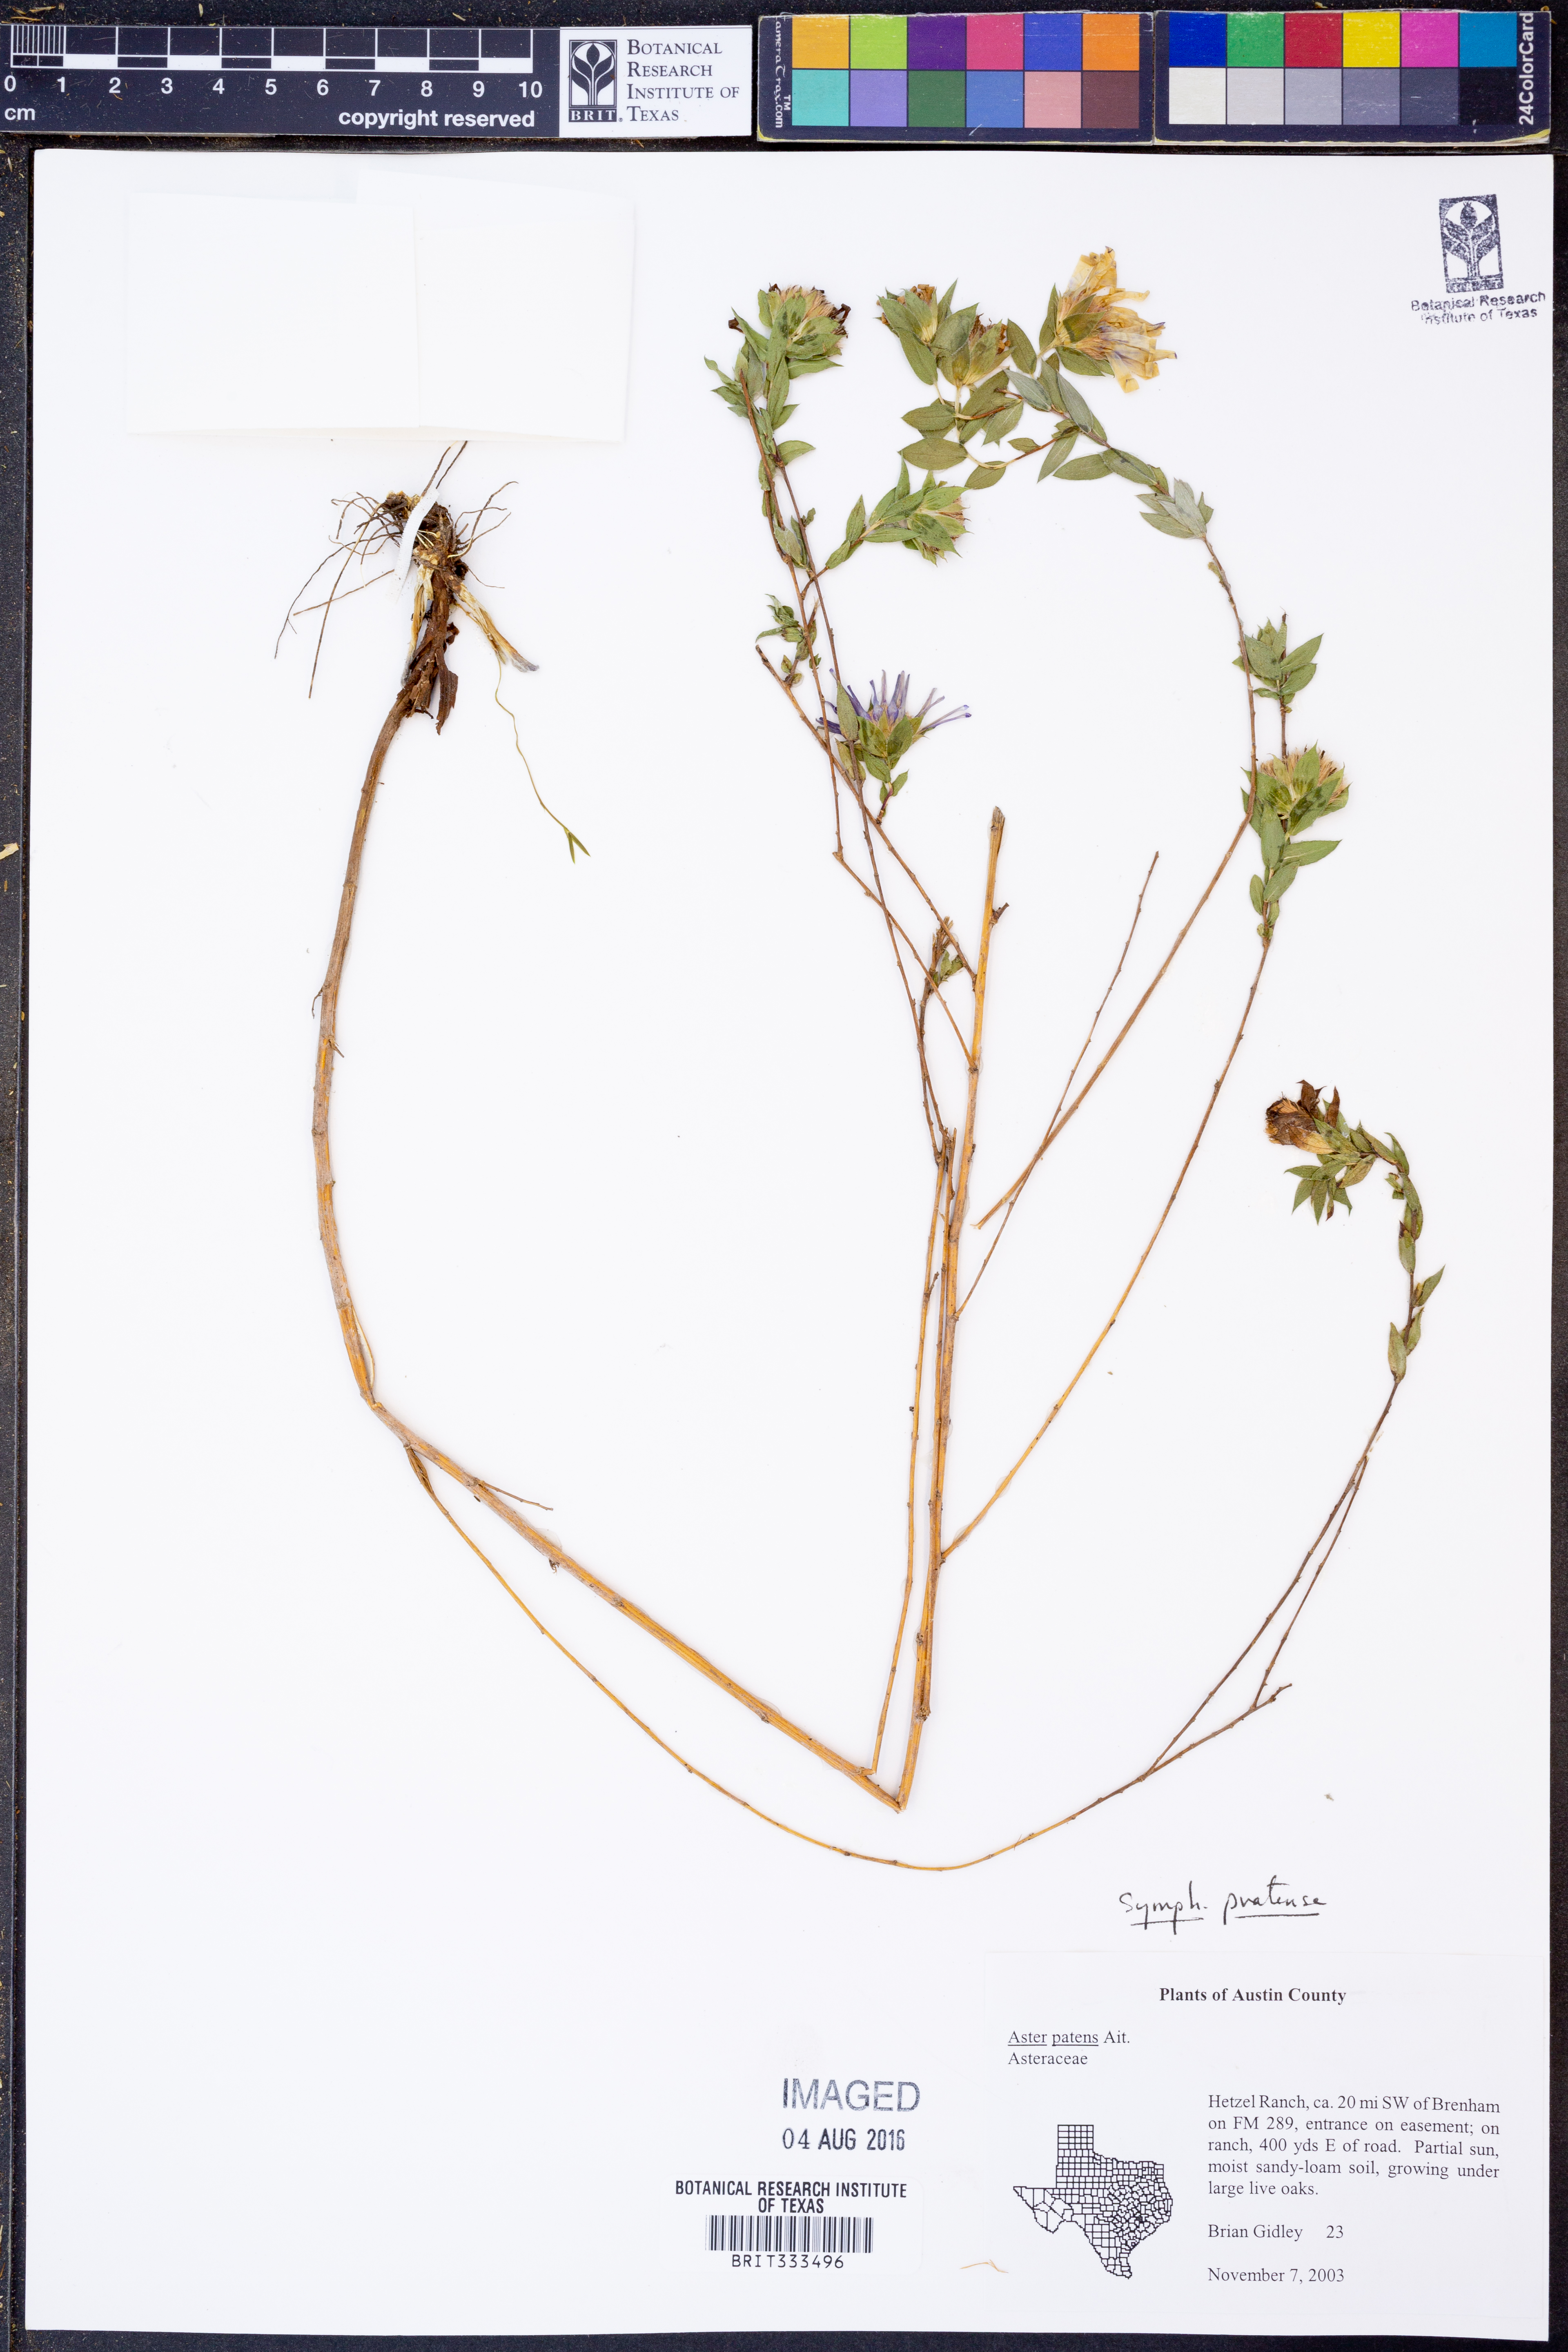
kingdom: Plantae
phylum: Tracheophyta
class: Magnoliopsida
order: Asterales
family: Asteraceae
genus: Symphyotrichum
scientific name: Symphyotrichum pratense
